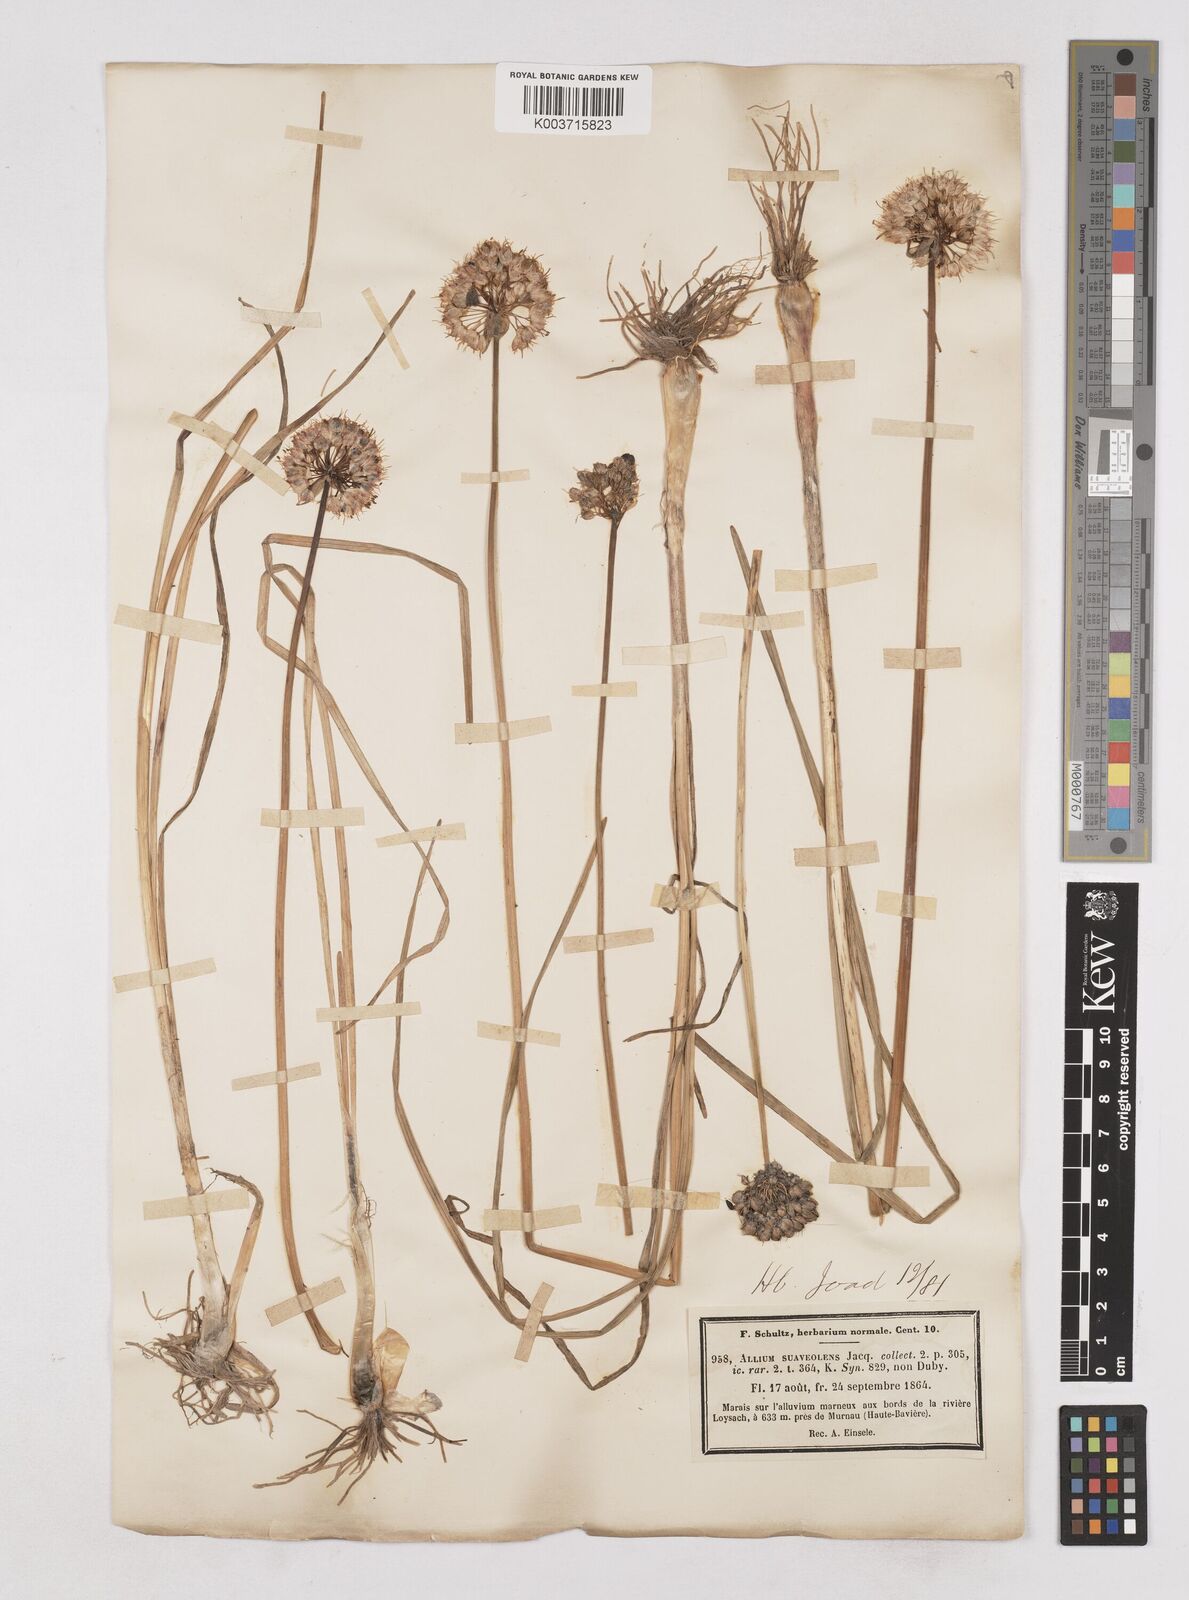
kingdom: Plantae
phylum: Tracheophyta
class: Liliopsida
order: Asparagales
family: Amaryllidaceae
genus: Allium
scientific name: Allium suaveolens
